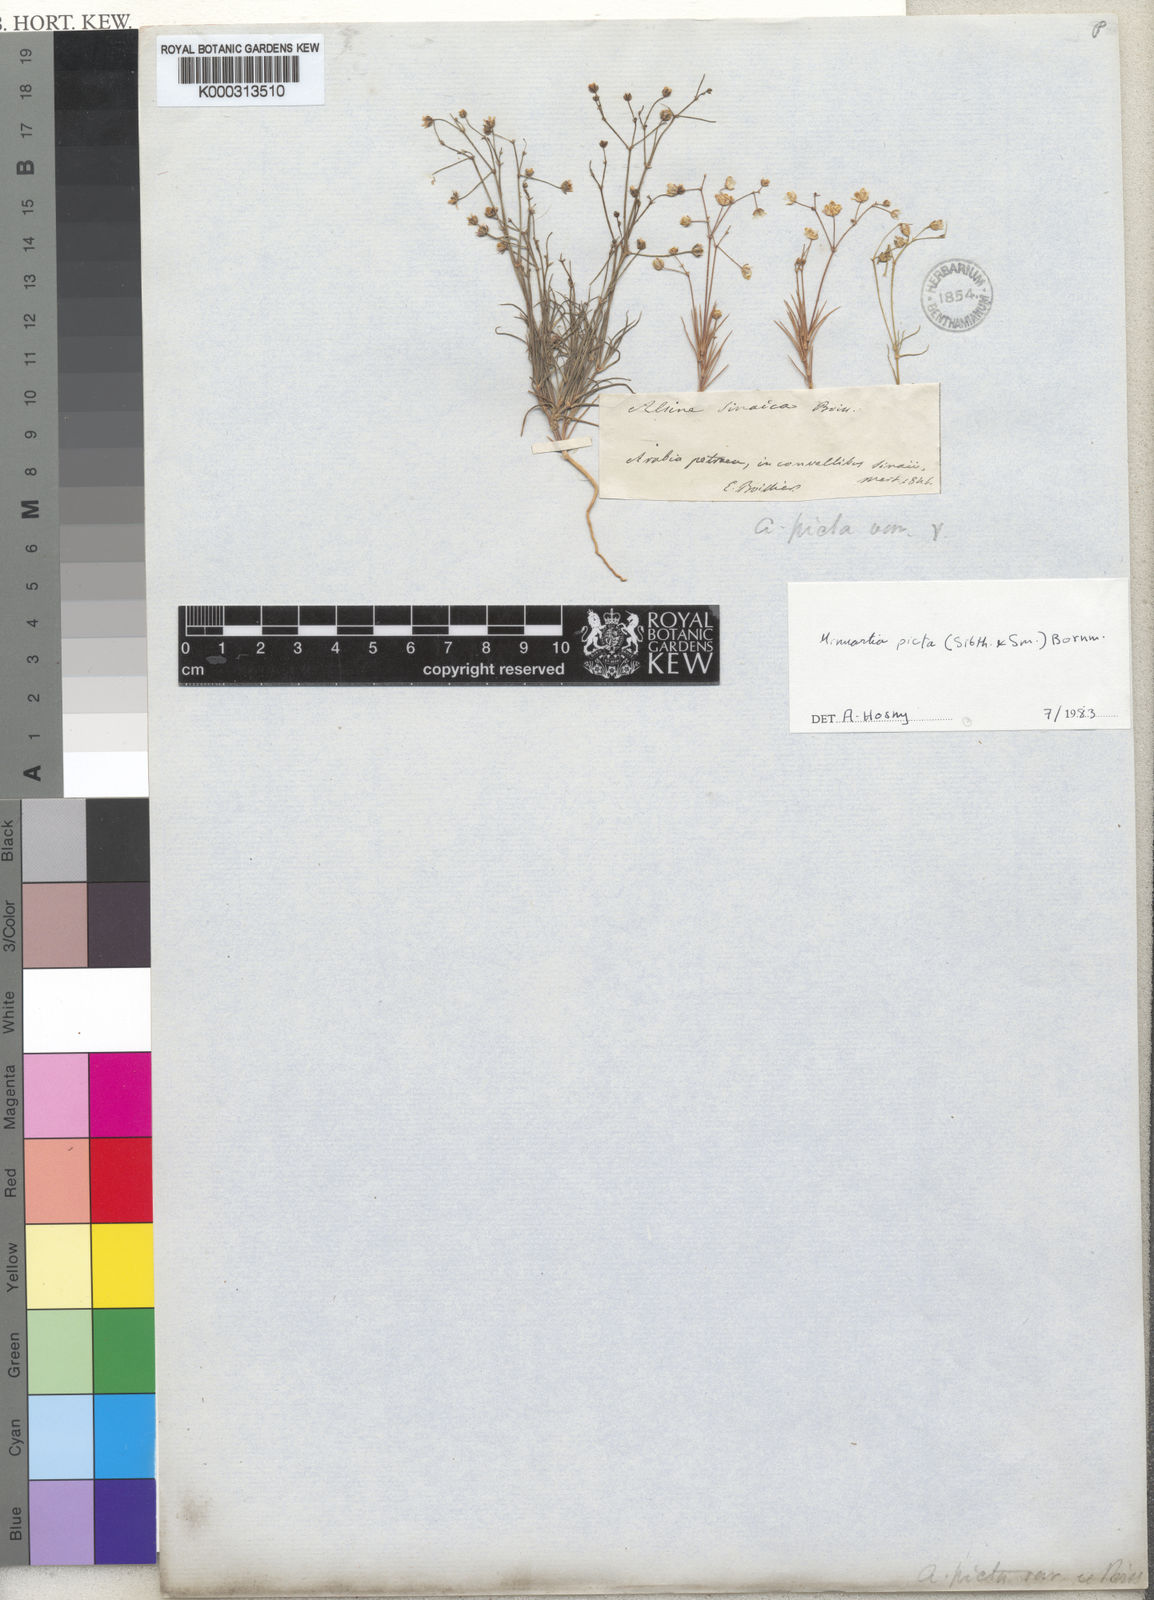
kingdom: Plantae
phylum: Tracheophyta
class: Magnoliopsida
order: Caryophyllales
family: Caryophyllaceae
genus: Eremogone
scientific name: Eremogone picta
